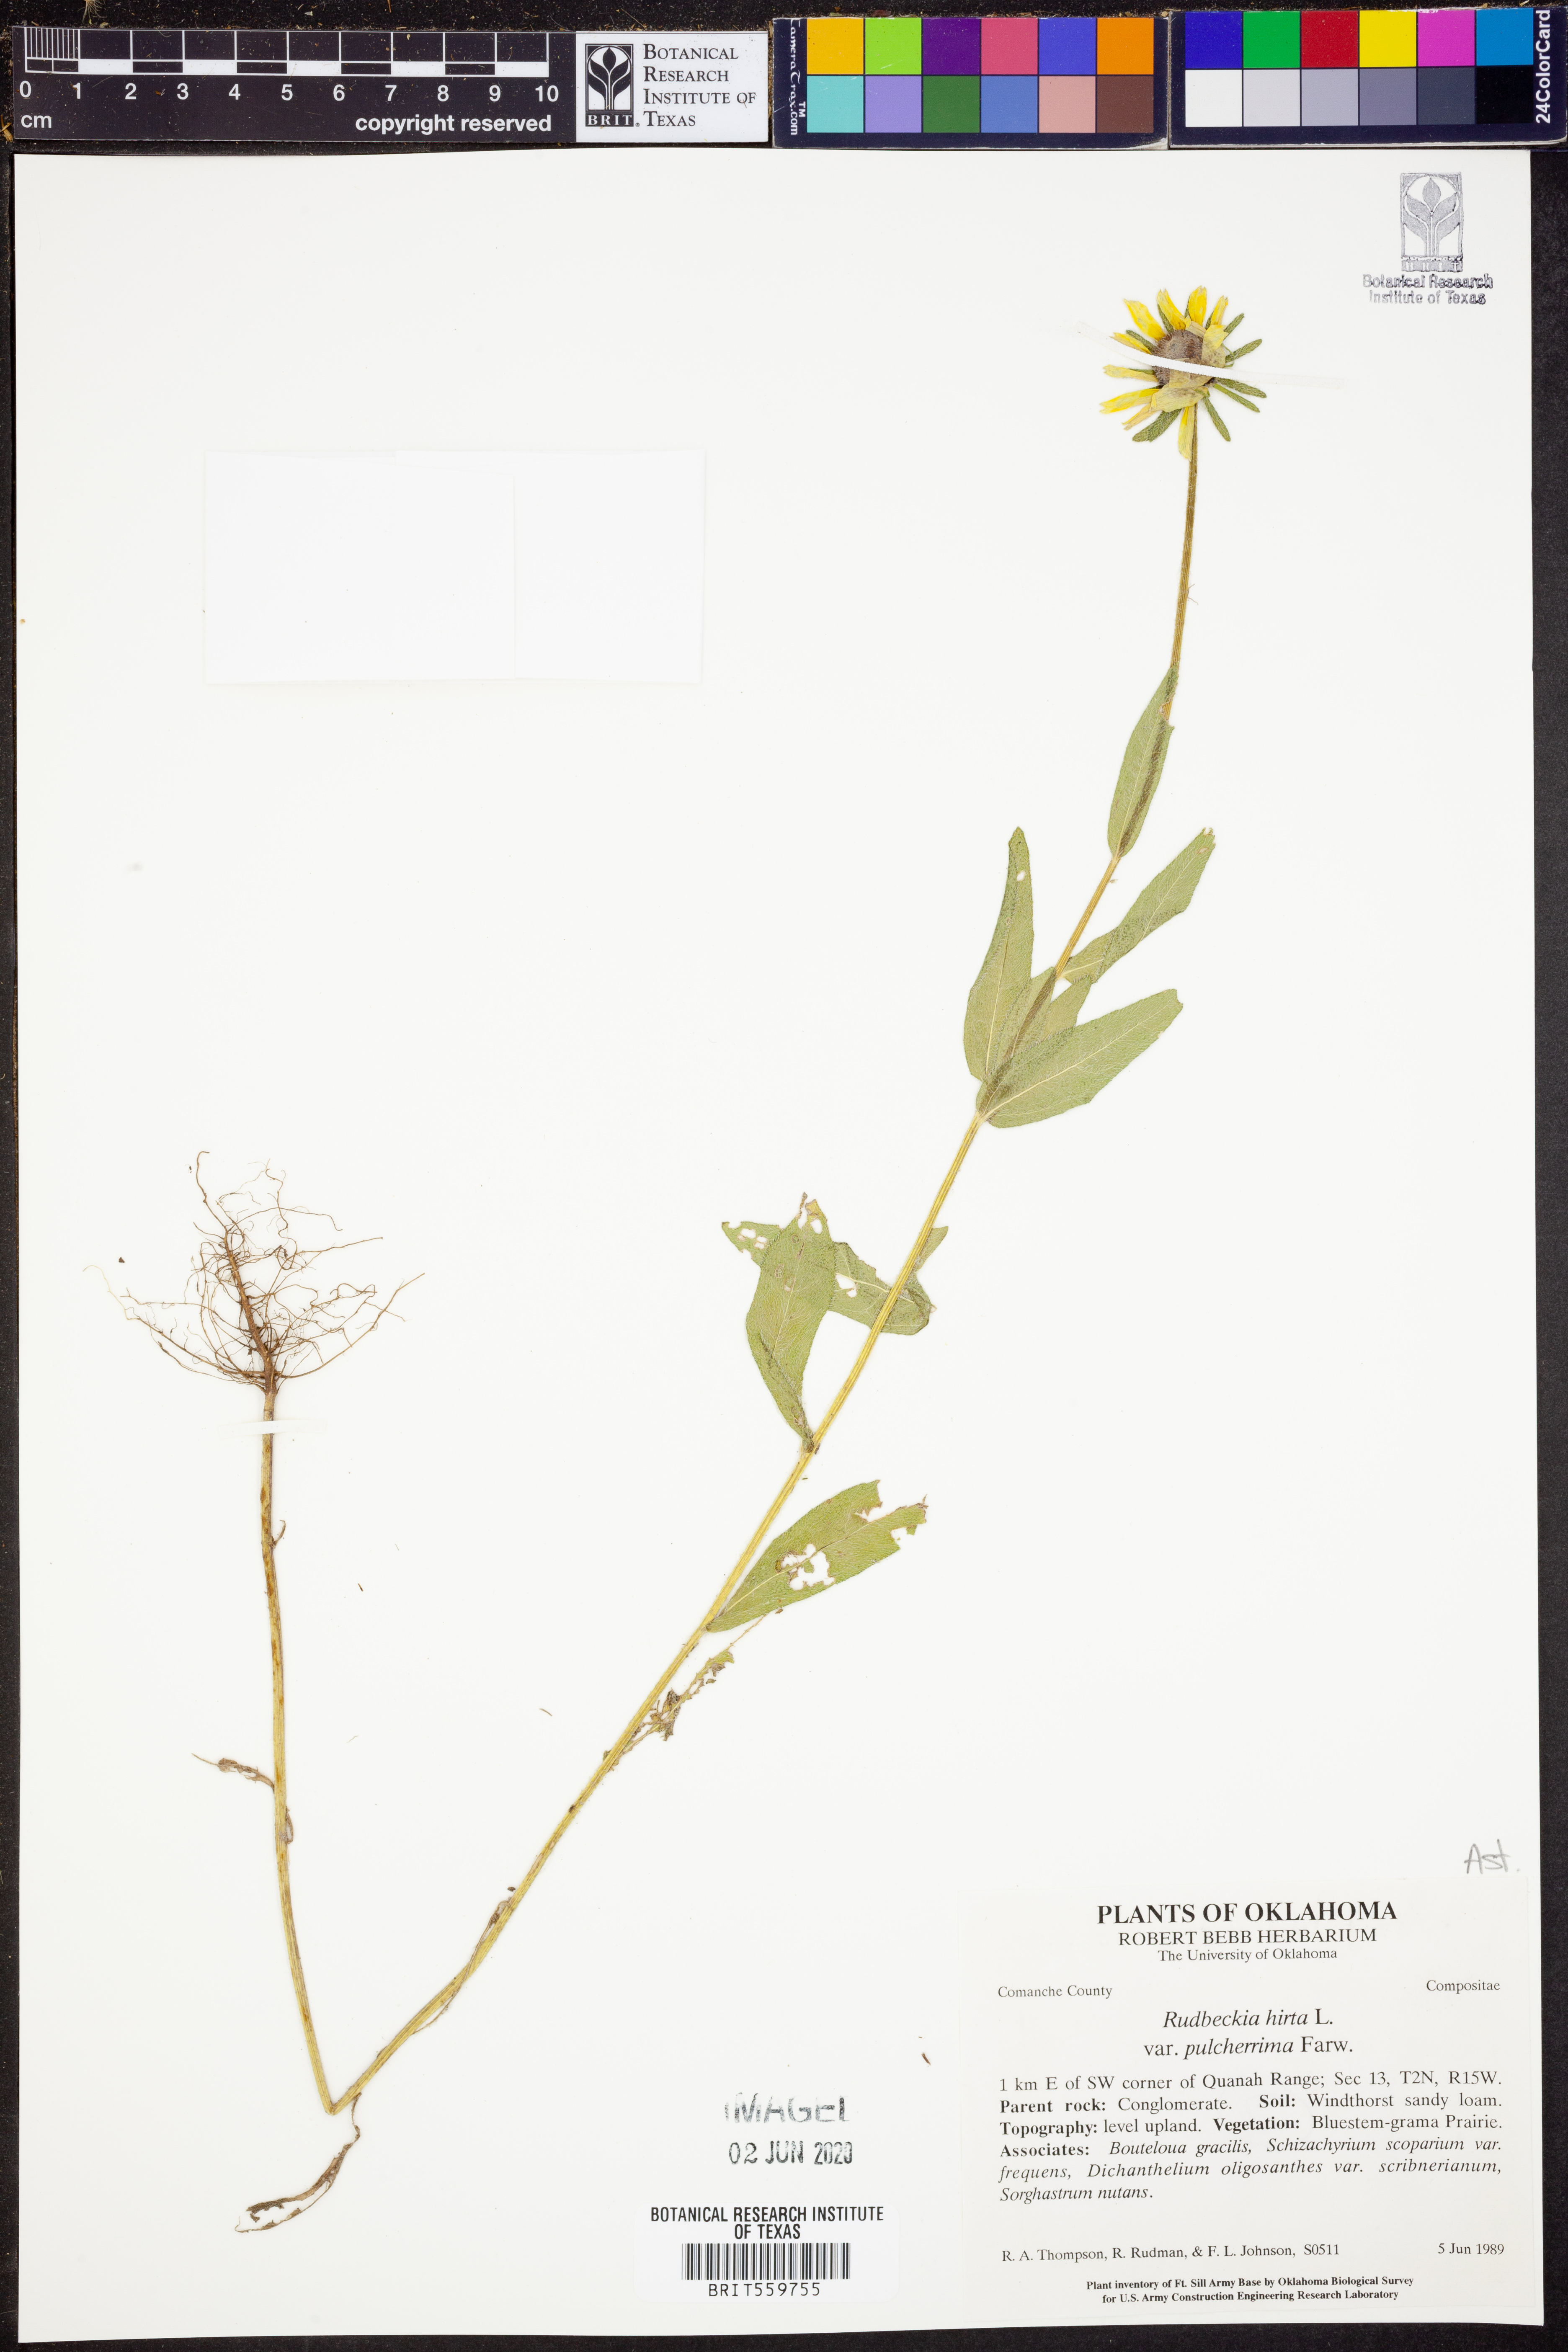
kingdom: Plantae
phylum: Tracheophyta
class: Magnoliopsida
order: Asterales
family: Asteraceae
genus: Rudbeckia
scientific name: Rudbeckia hirta
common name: Black-eyed-susan
